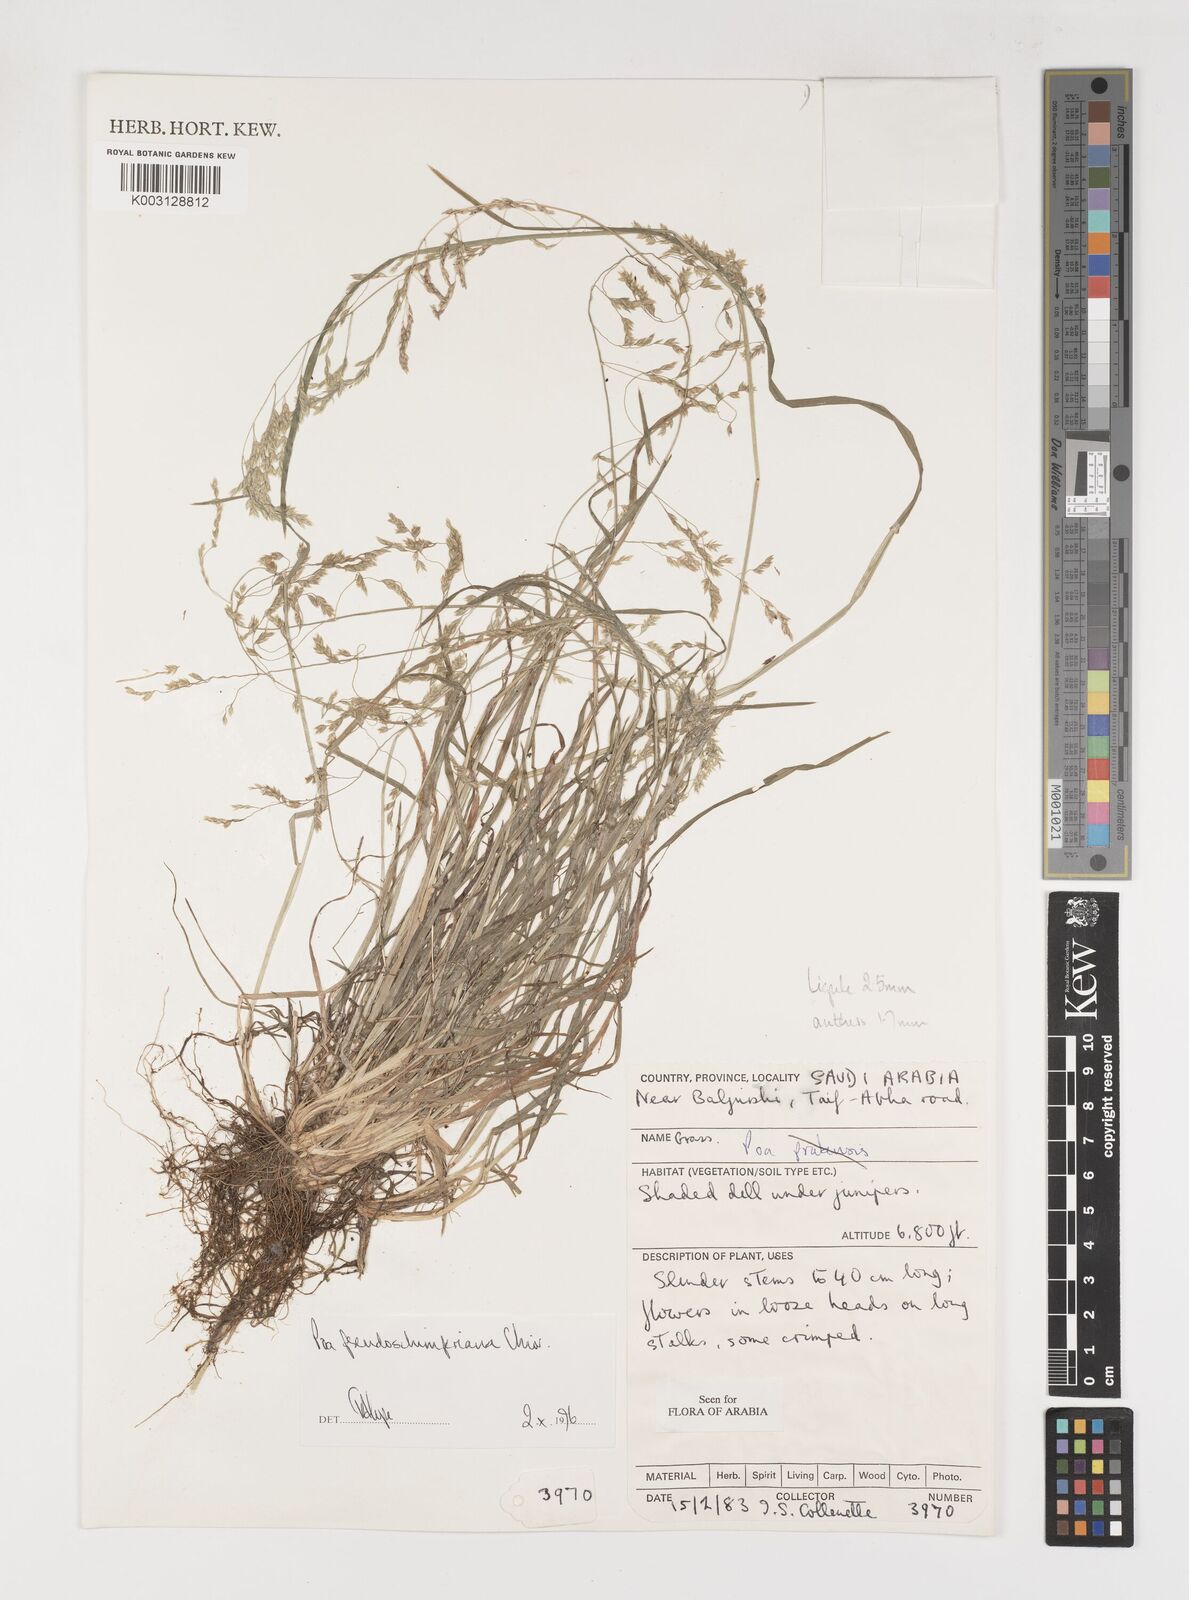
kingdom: Plantae
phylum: Tracheophyta
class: Liliopsida
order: Poales
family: Poaceae
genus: Poa
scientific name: Poa pseudoschimperiana
